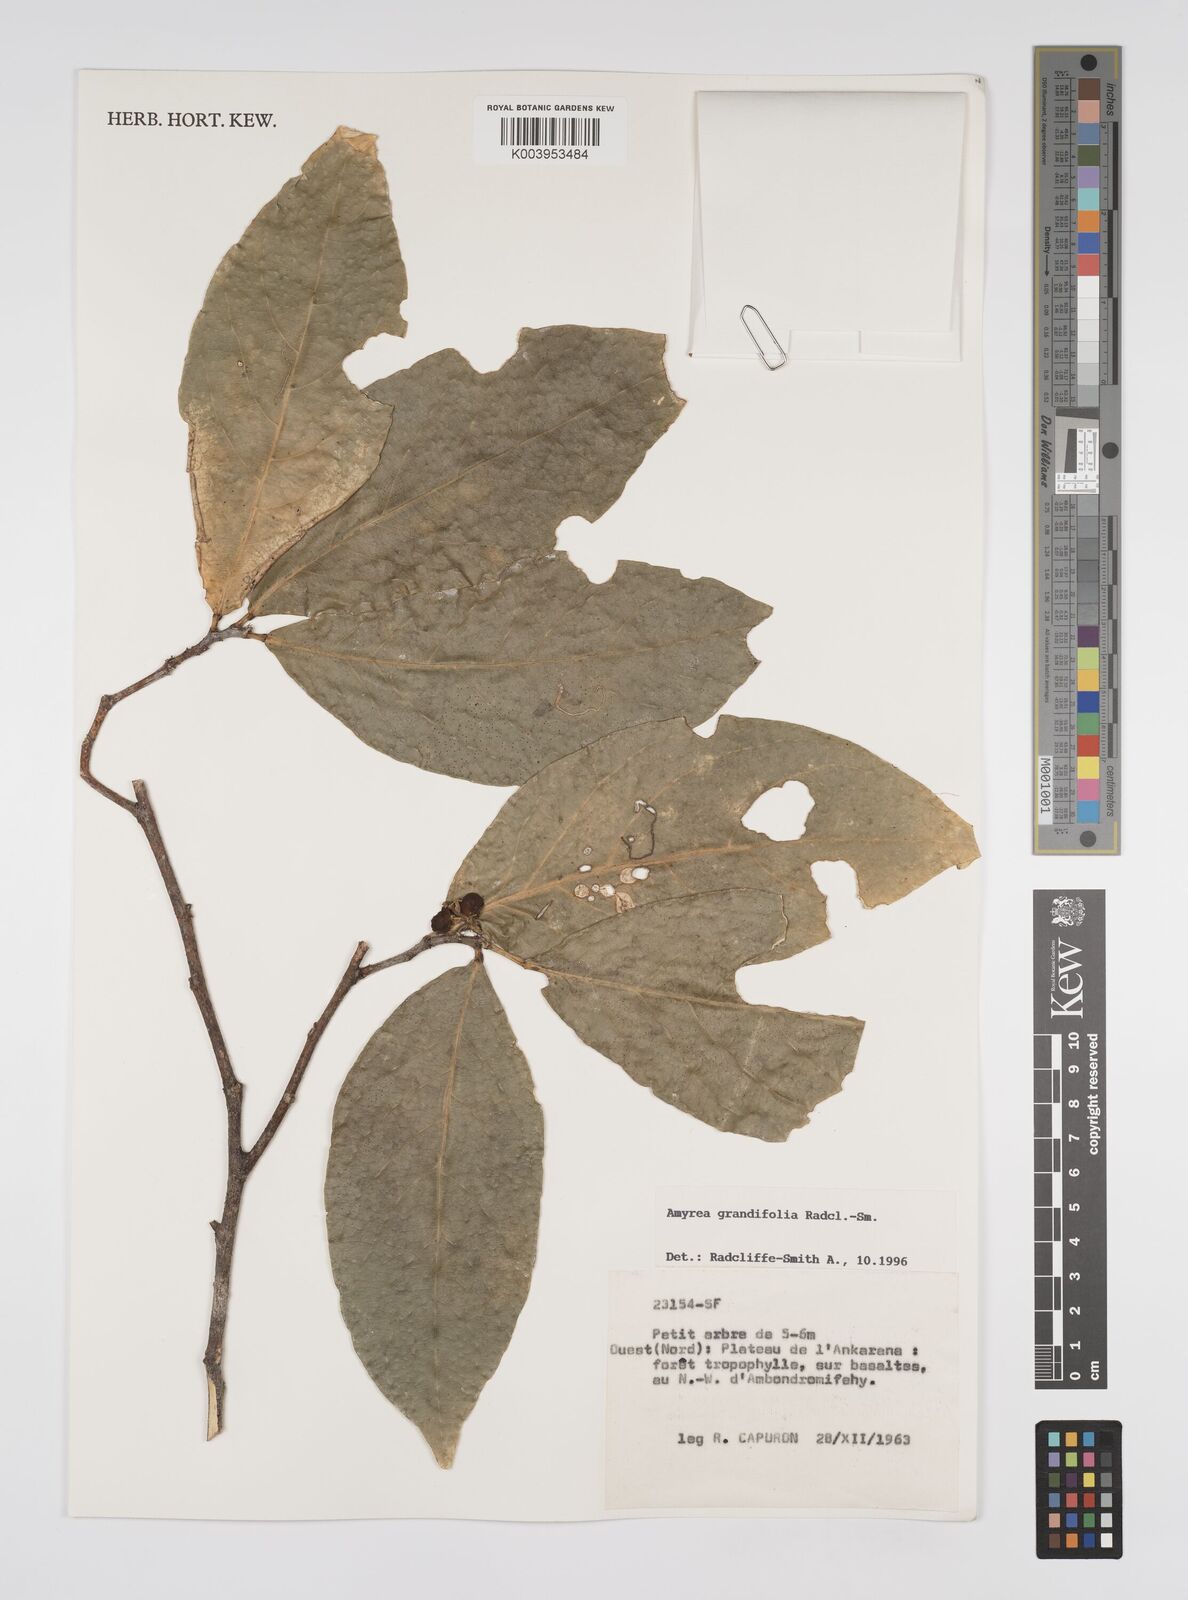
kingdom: Plantae
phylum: Tracheophyta
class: Magnoliopsida
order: Malpighiales
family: Euphorbiaceae
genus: Amyrea
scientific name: Amyrea grandifolia
